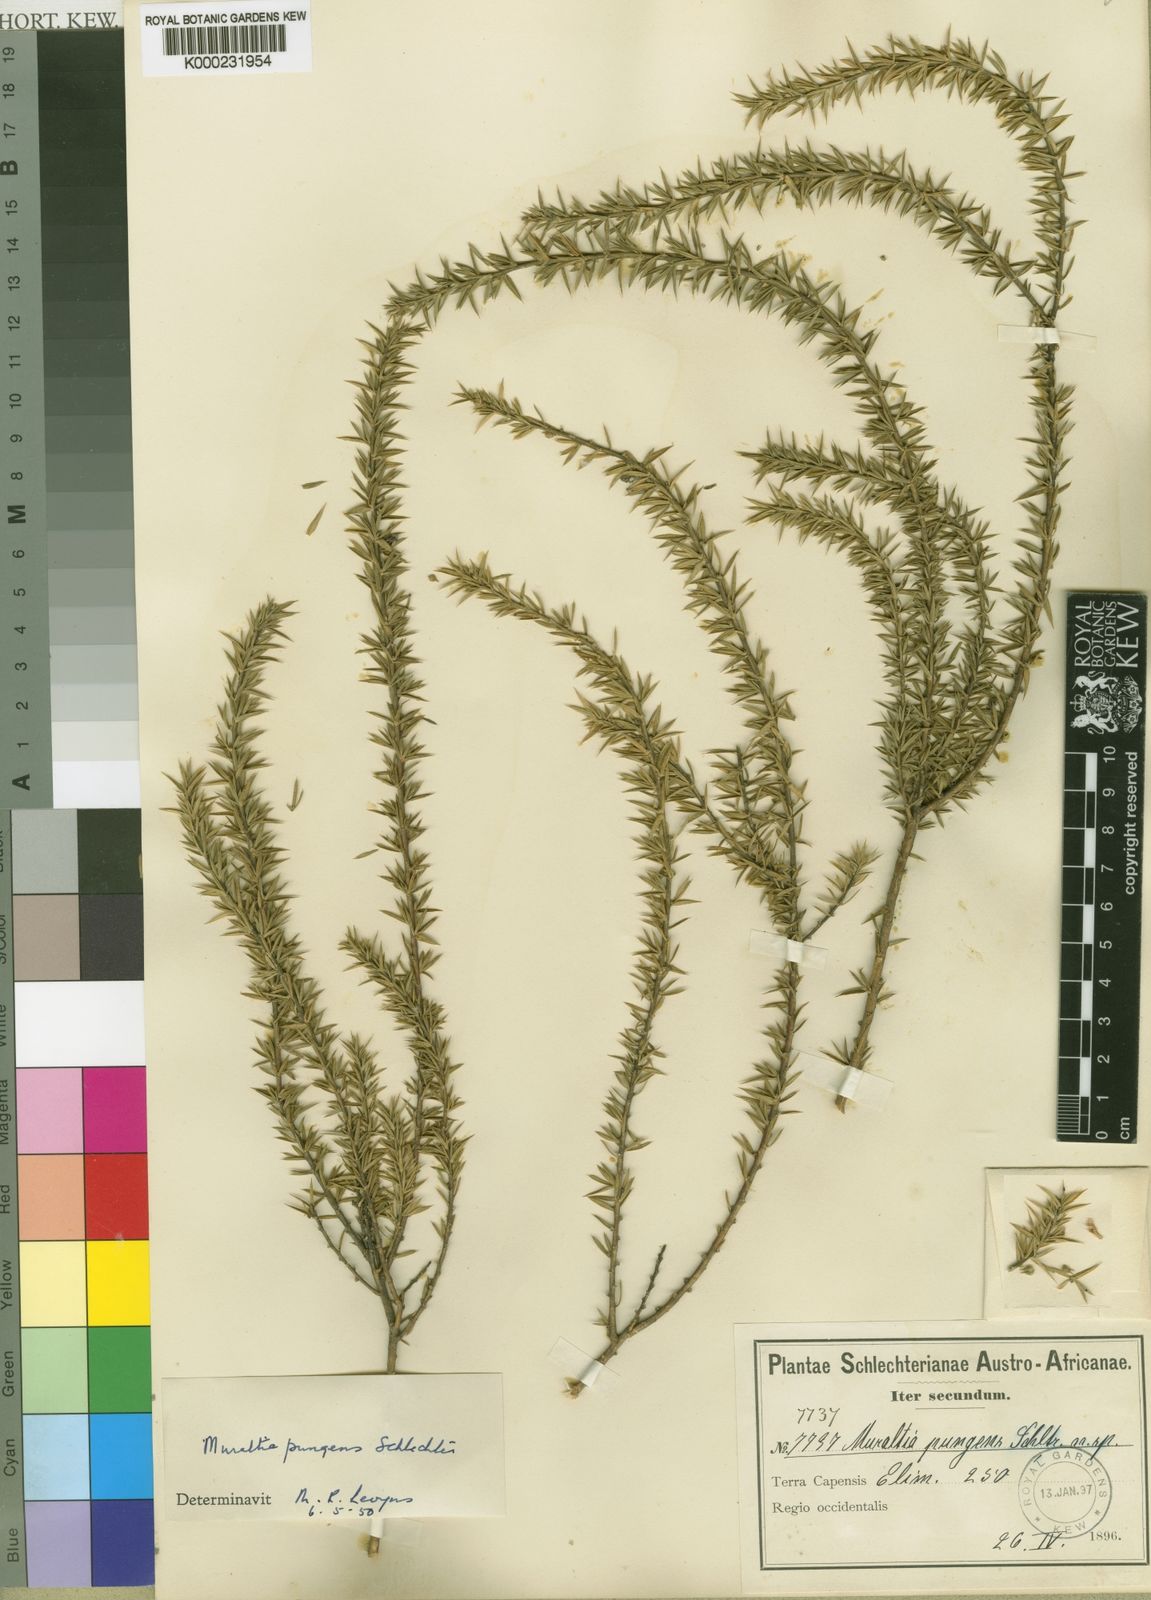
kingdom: Plantae
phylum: Tracheophyta
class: Magnoliopsida
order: Fabales
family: Polygalaceae
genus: Muraltia
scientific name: Muraltia pungens
